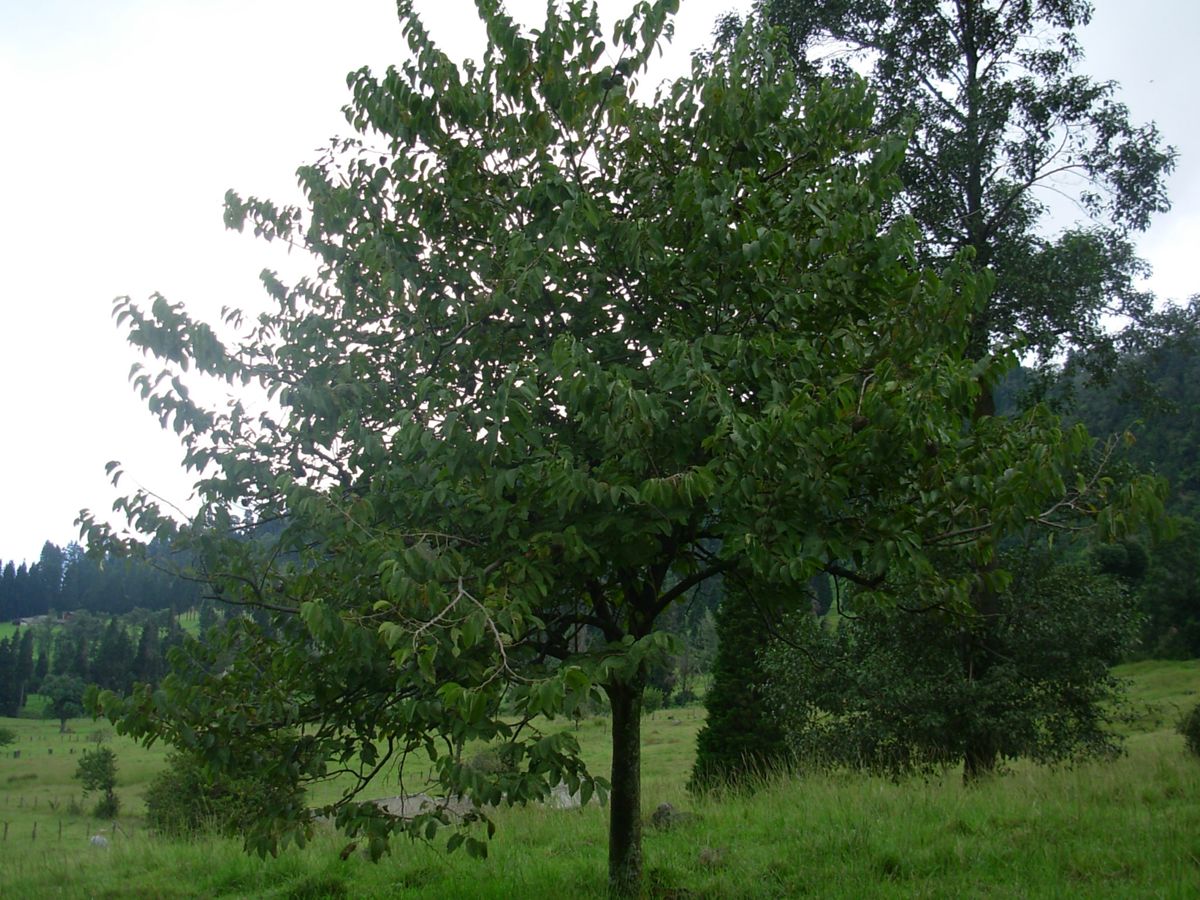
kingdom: Plantae
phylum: Tracheophyta
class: Magnoliopsida
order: Magnoliales
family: Annonaceae
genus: Annona
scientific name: Annona cherimola
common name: Cherimoya
